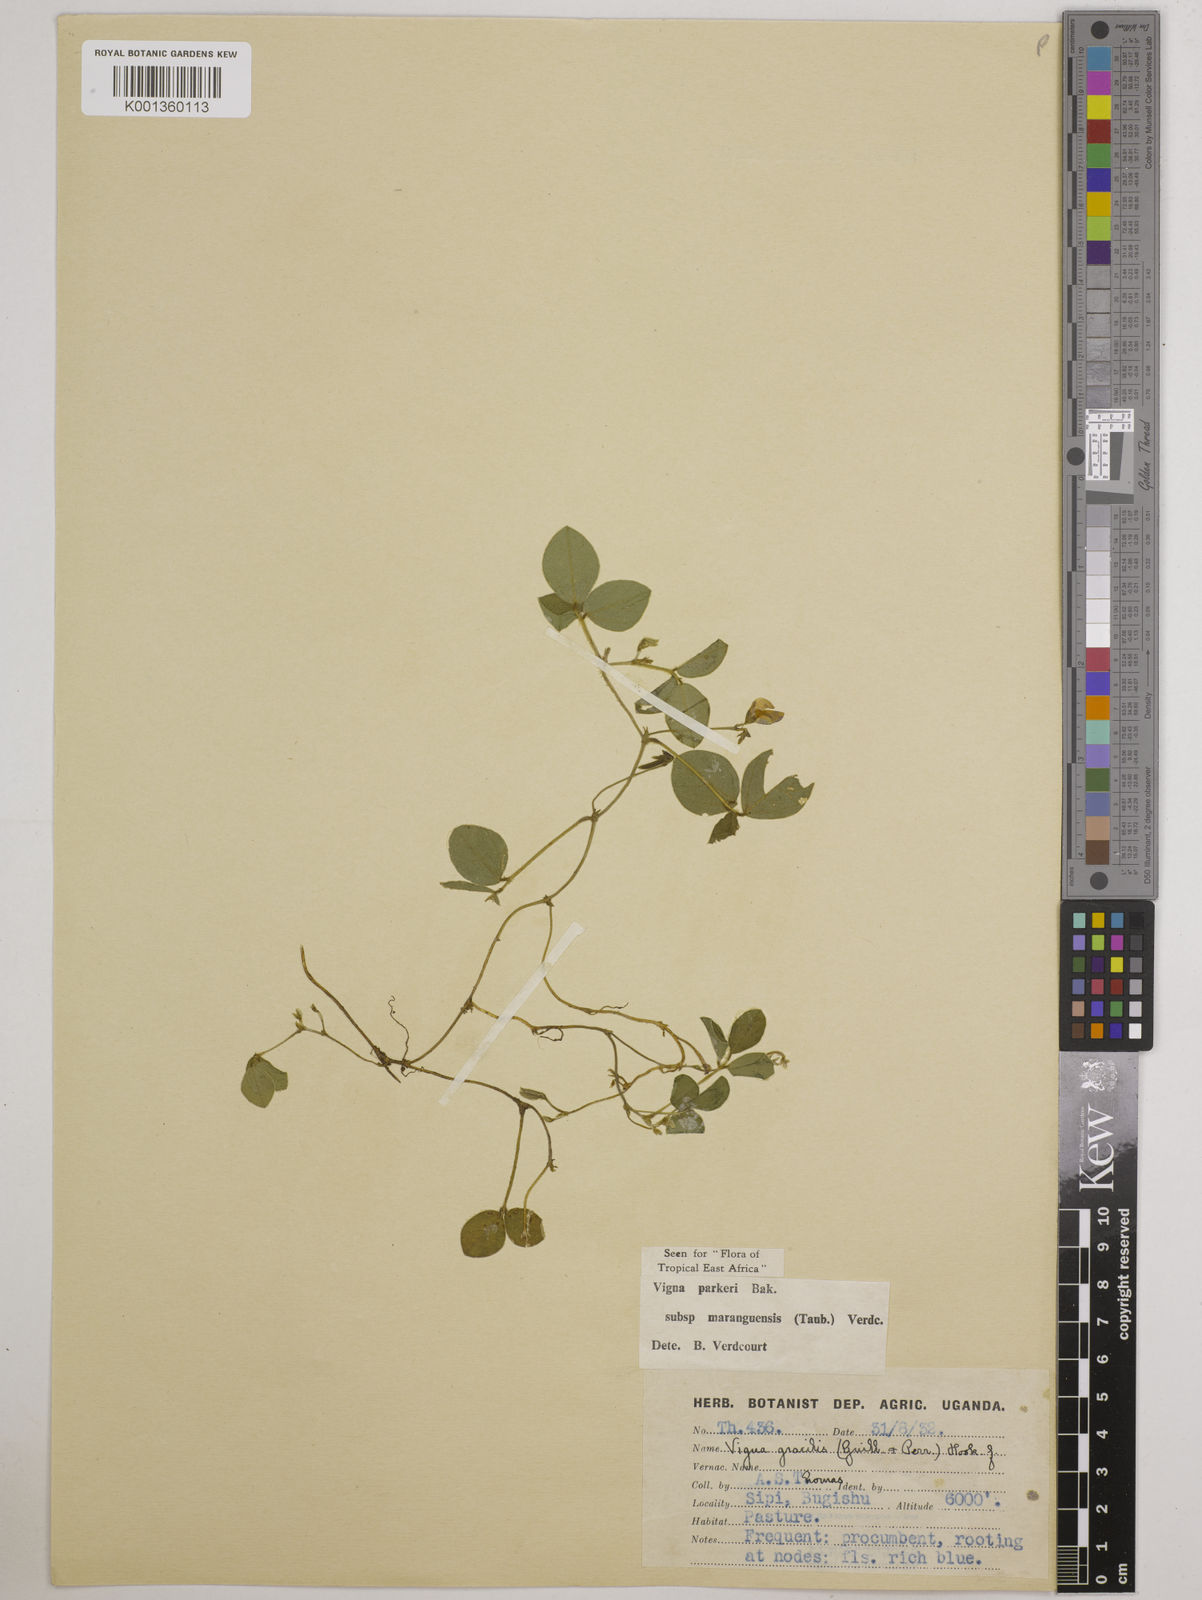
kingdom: Plantae
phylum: Tracheophyta
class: Magnoliopsida
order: Fabales
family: Fabaceae
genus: Vigna
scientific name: Vigna
